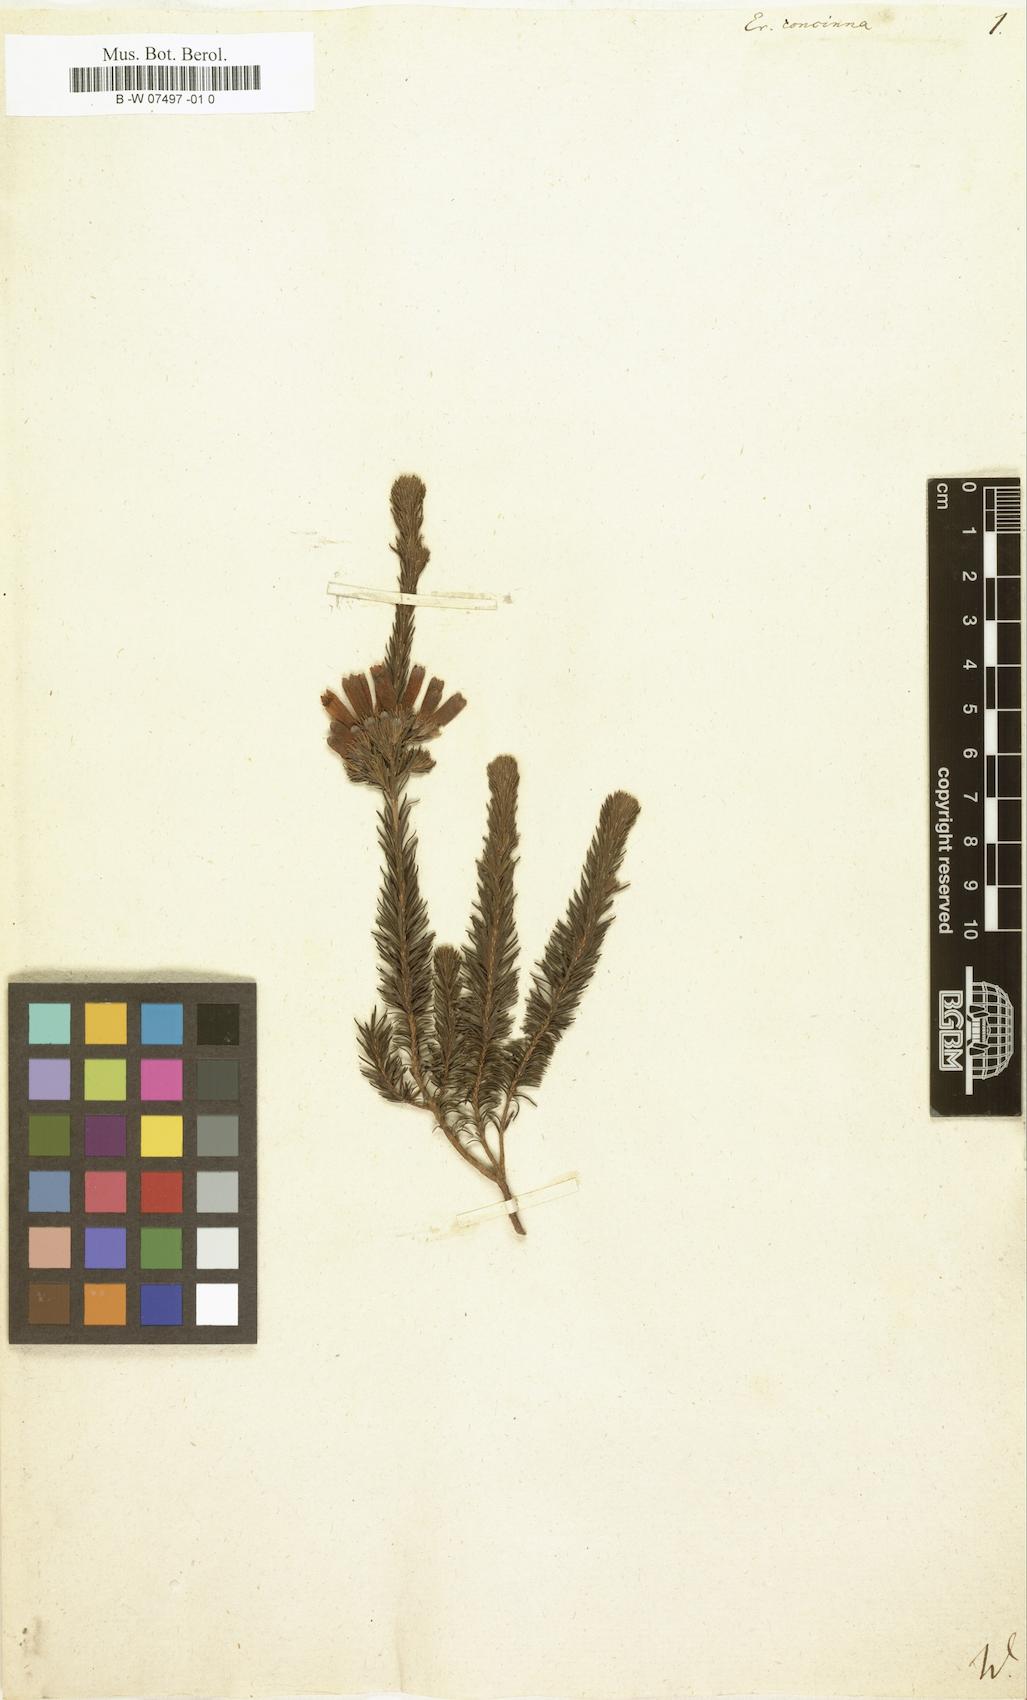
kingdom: Plantae
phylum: Tracheophyta
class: Magnoliopsida
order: Ericales
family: Ericaceae
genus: Erica
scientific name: Erica cruenta
